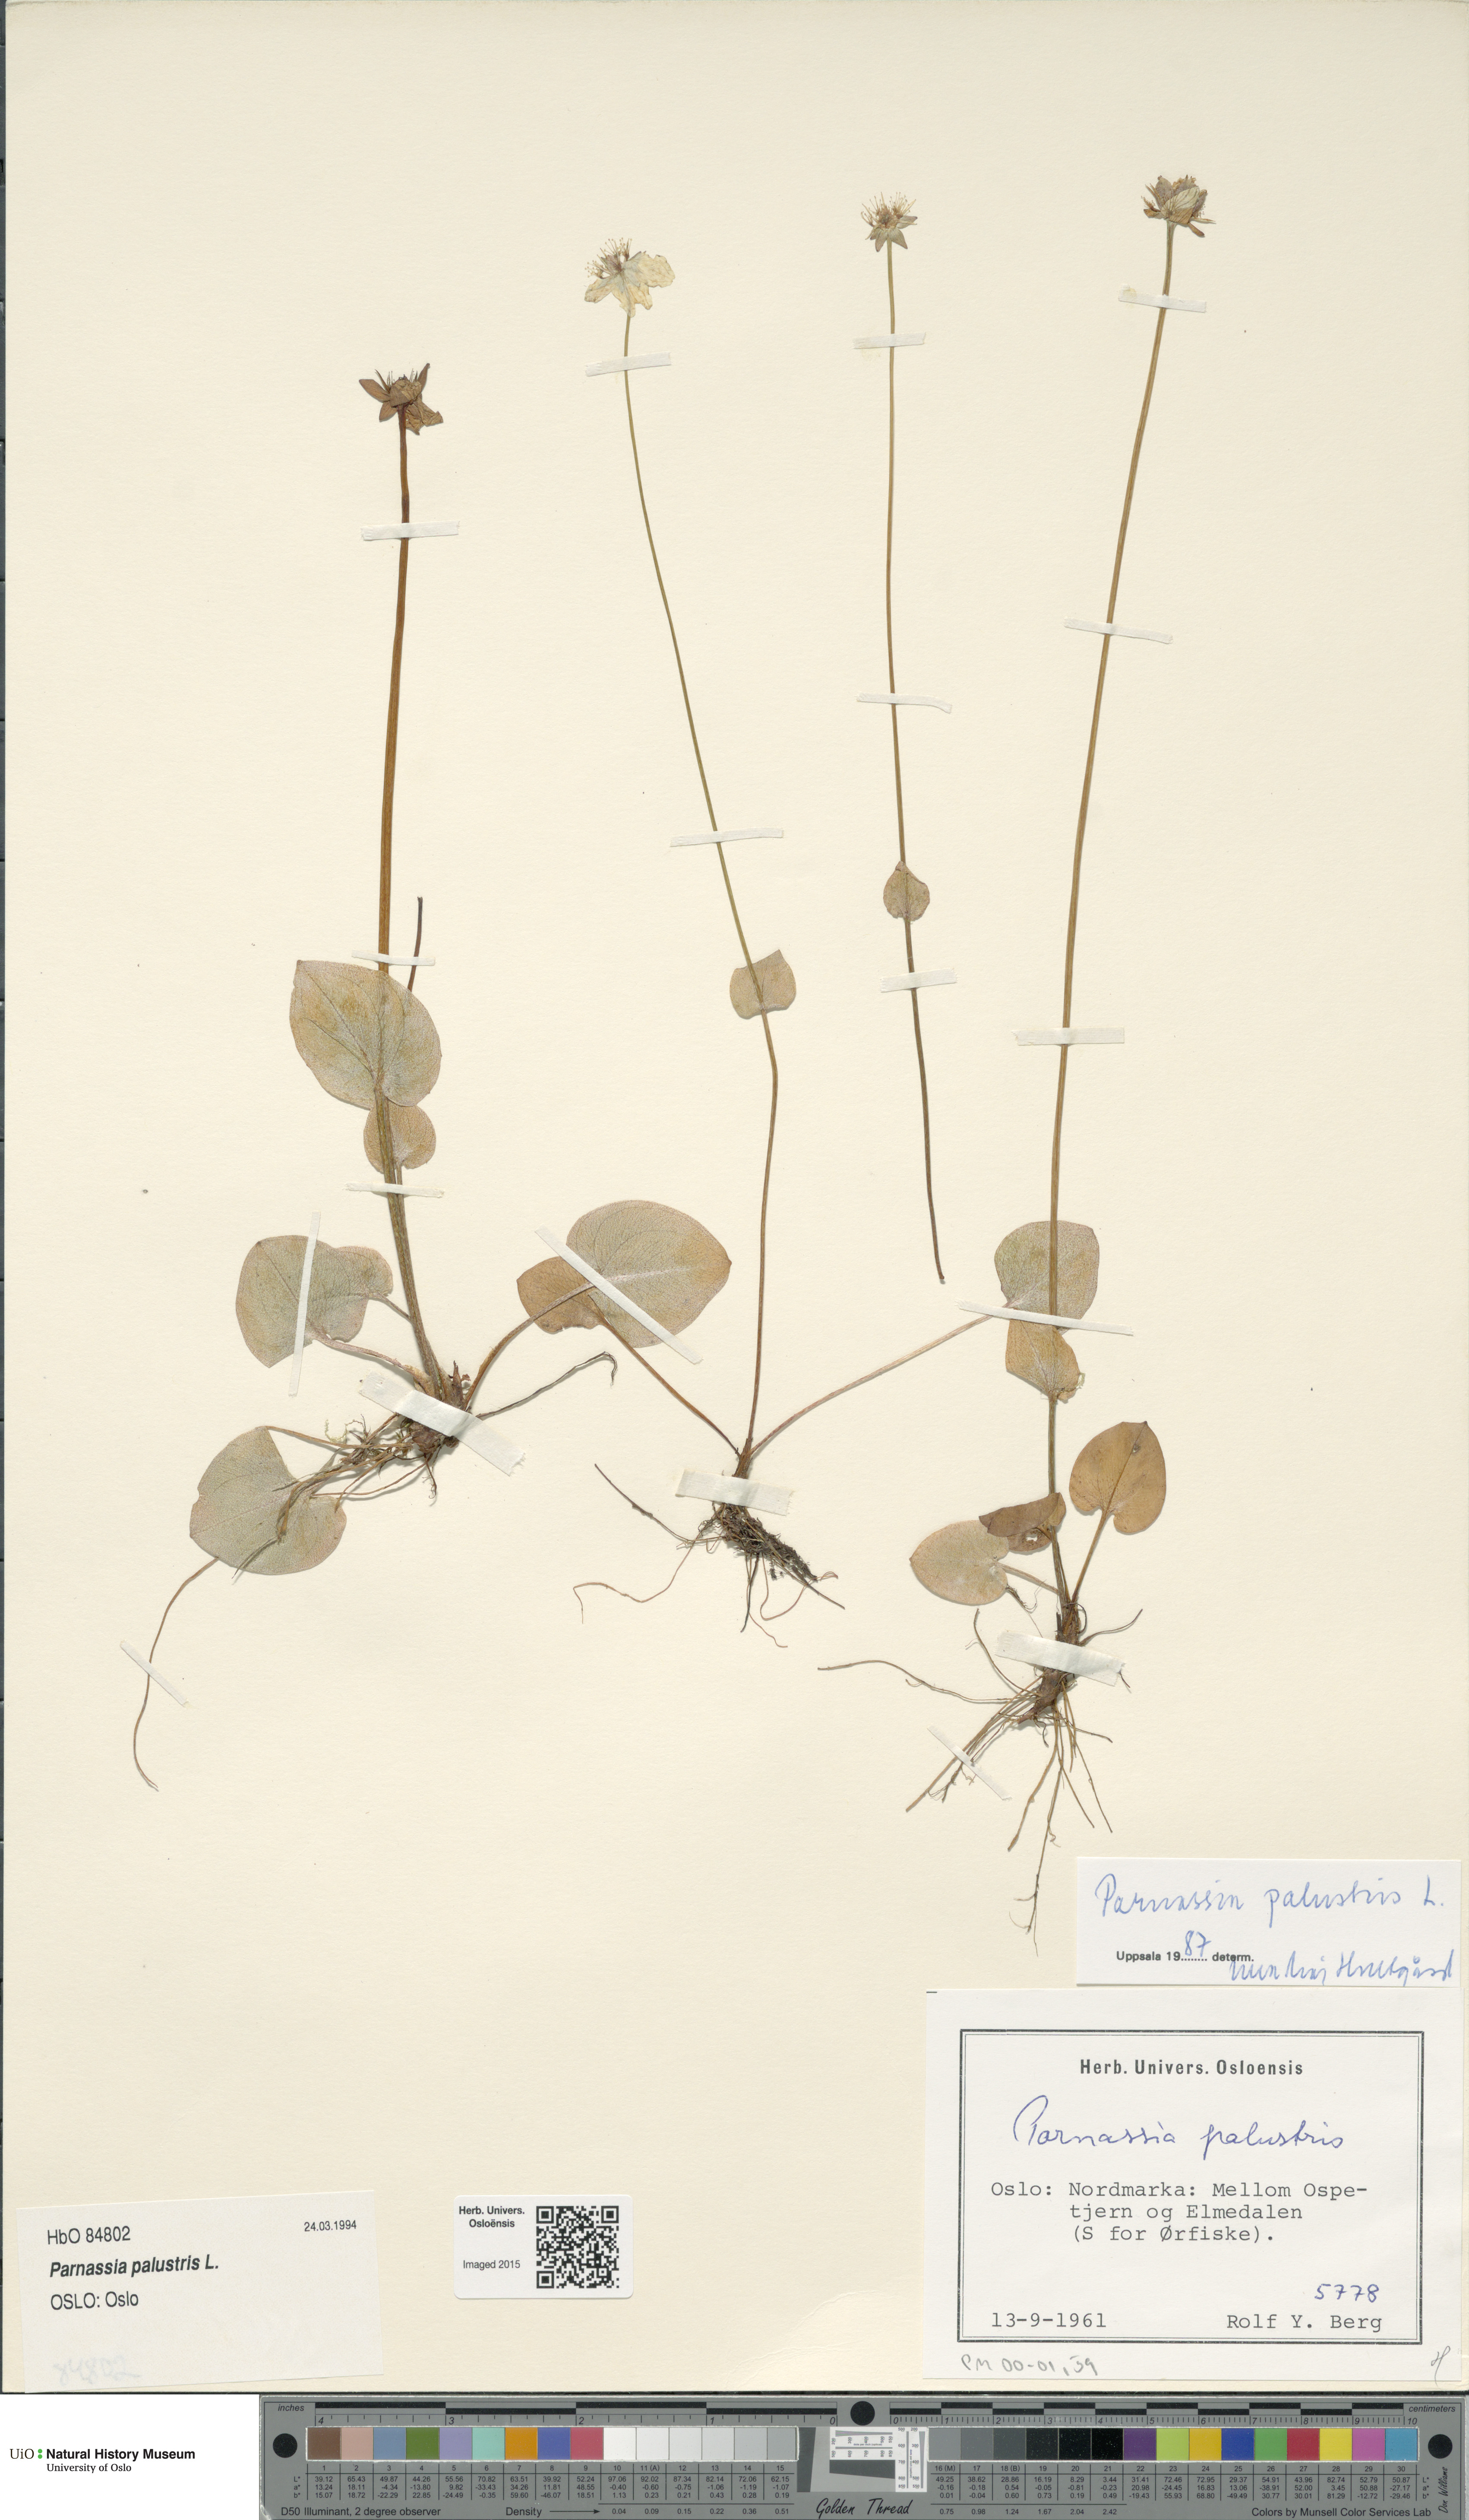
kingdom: Plantae
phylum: Tracheophyta
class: Magnoliopsida
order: Celastrales
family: Parnassiaceae
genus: Parnassia
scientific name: Parnassia palustris
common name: Grass-of-parnassus
